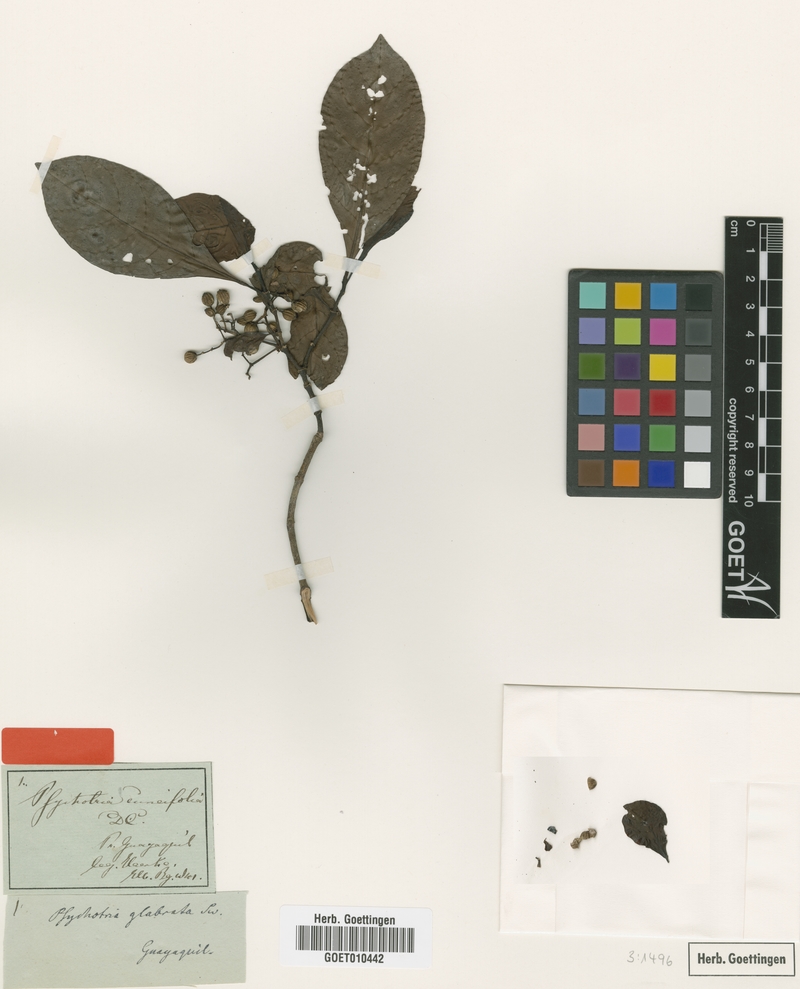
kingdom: Plantae
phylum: Tracheophyta
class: Magnoliopsida
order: Gentianales
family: Rubiaceae
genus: Psychotria
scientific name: Psychotria cuneifolia
